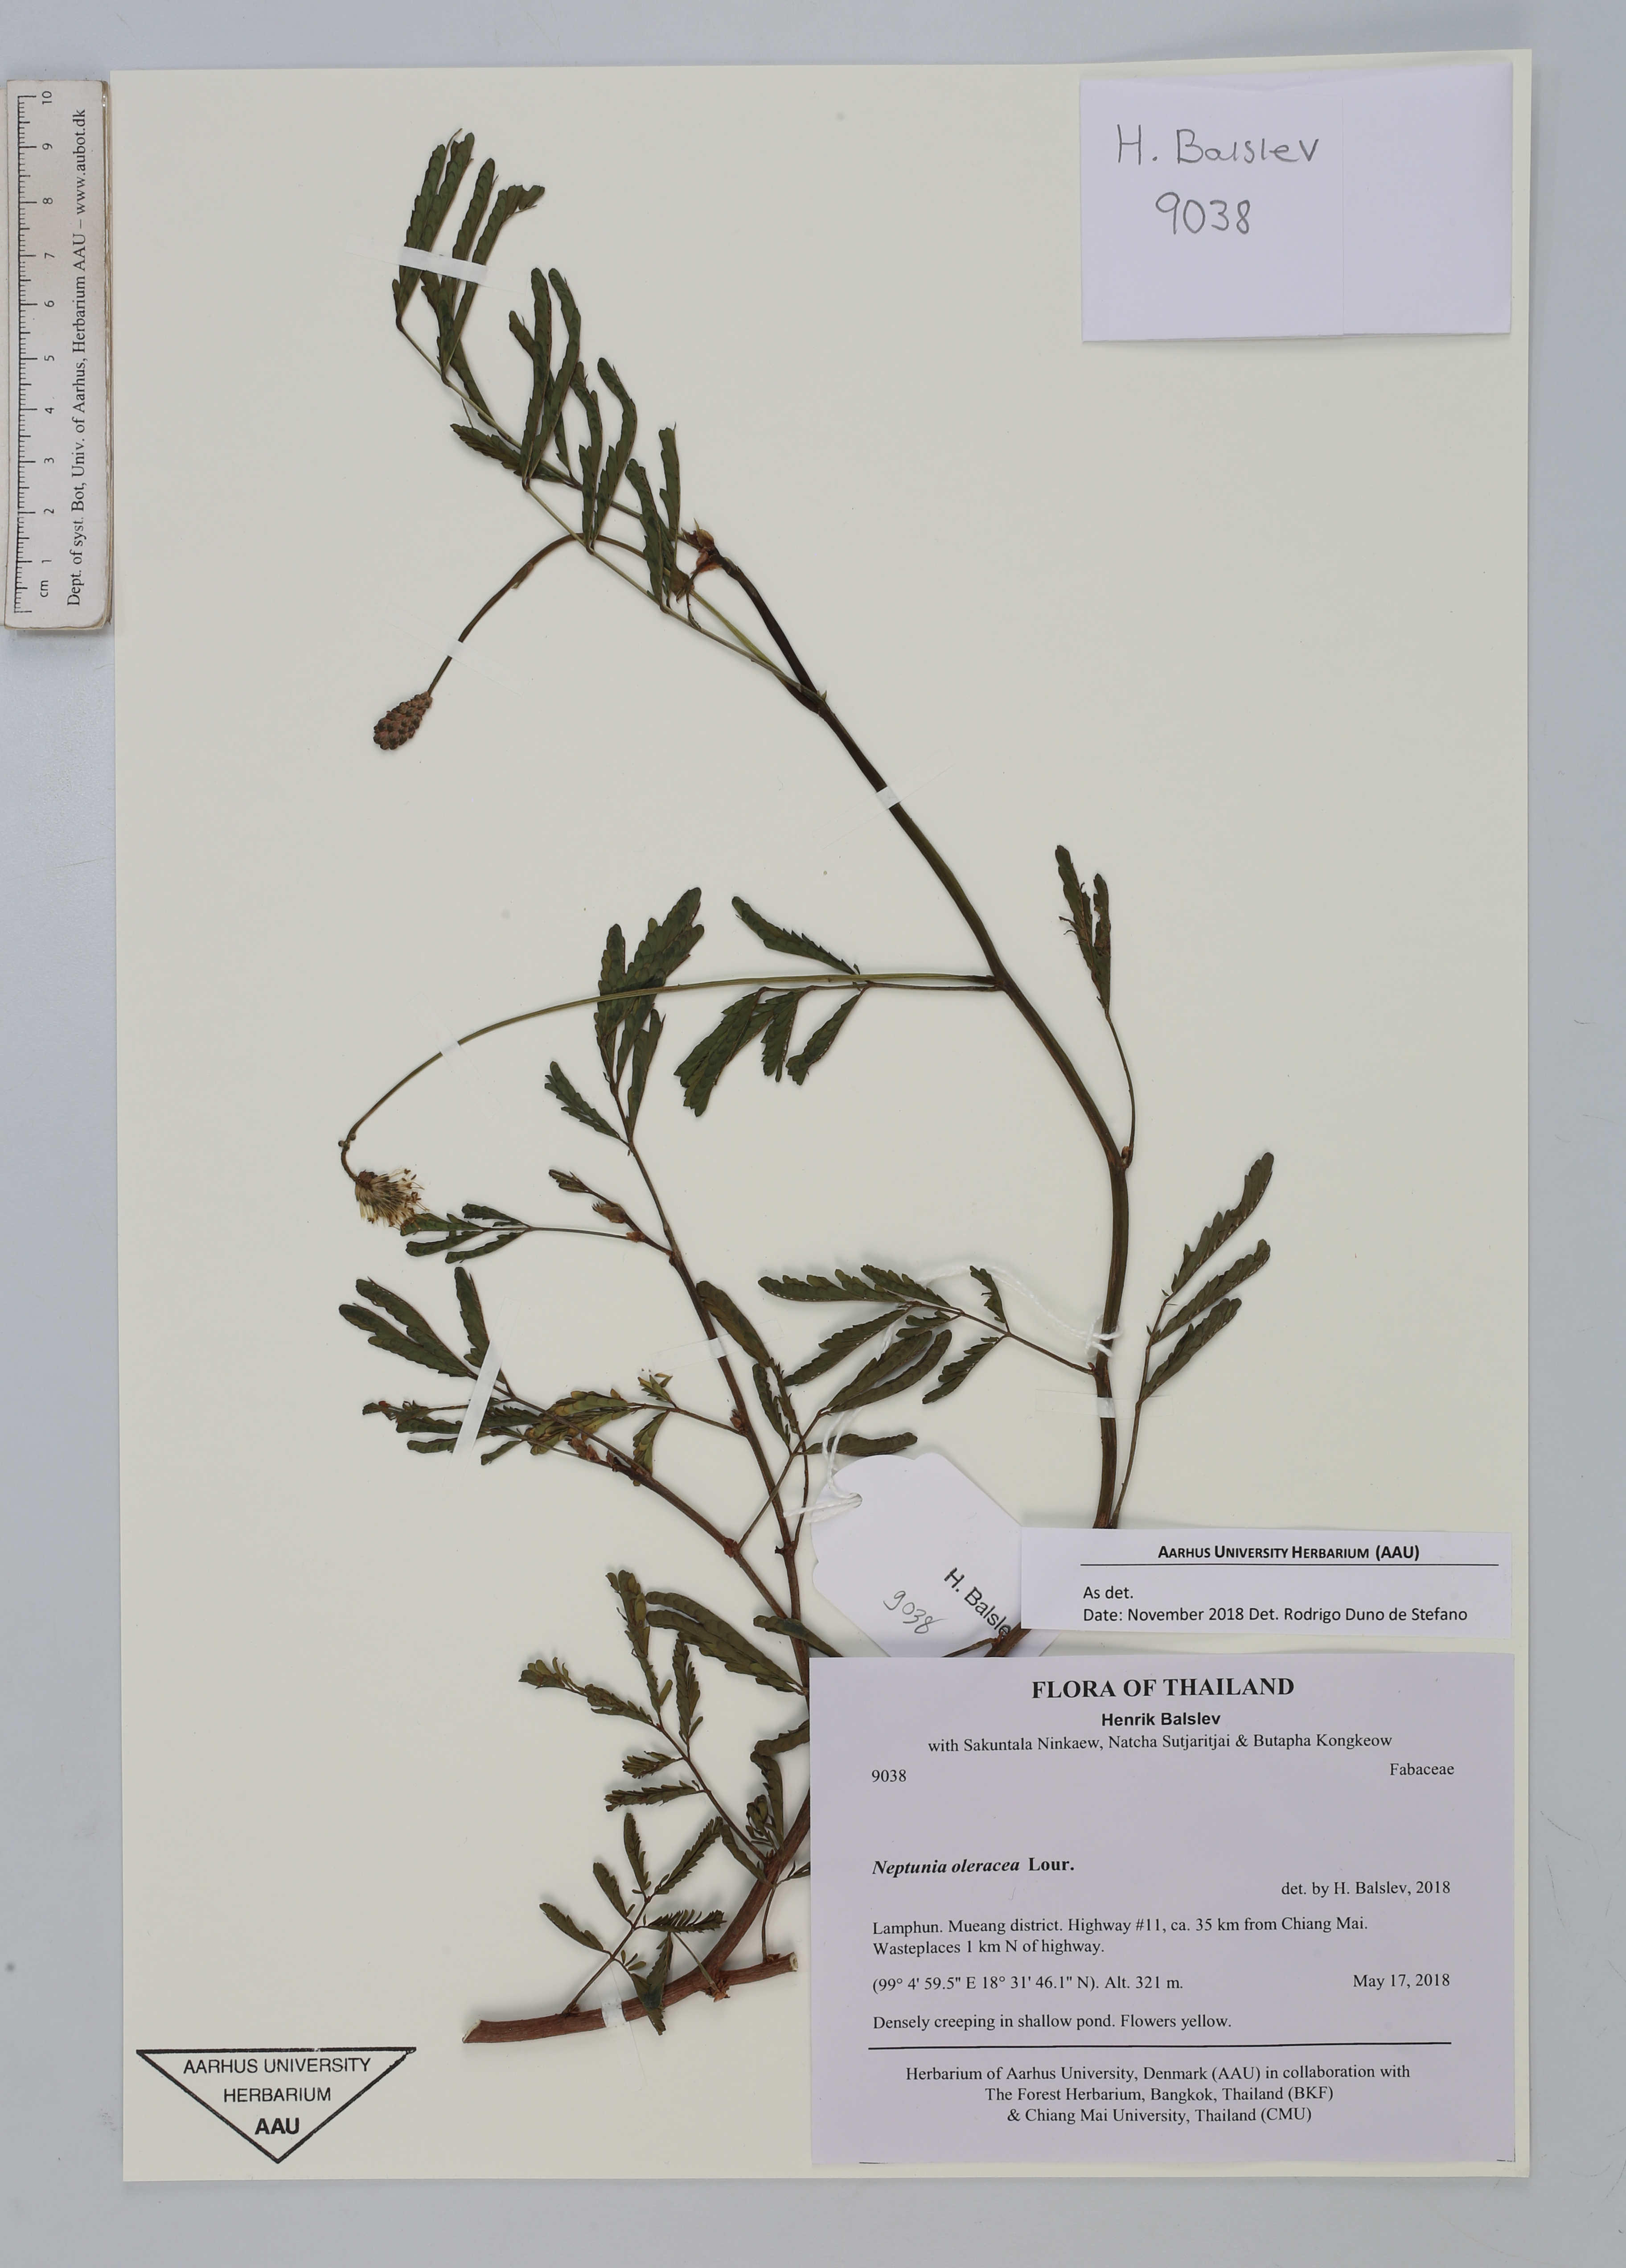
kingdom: Plantae
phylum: Tracheophyta
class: Magnoliopsida
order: Fabales
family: Fabaceae
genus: Neptunia
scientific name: Neptunia prostrata
